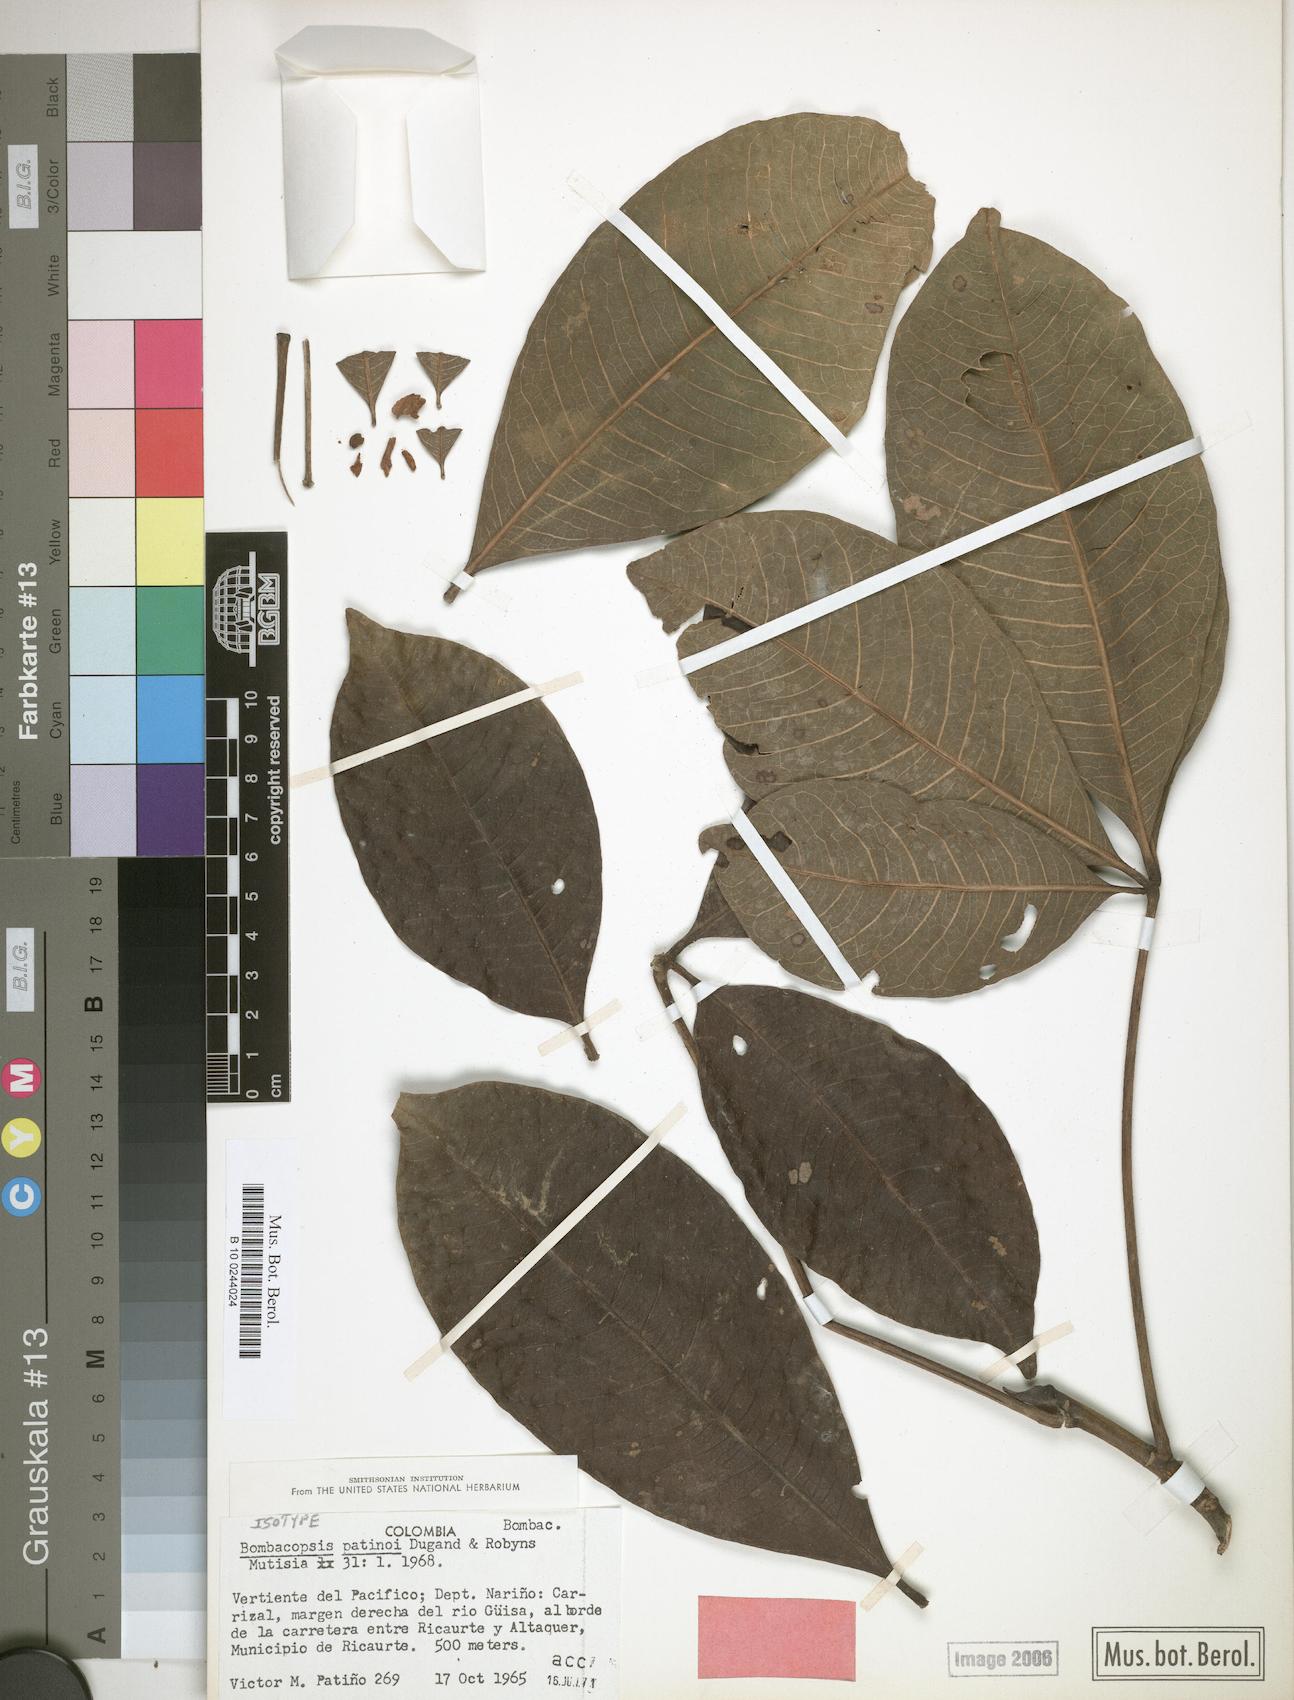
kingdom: Plantae
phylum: Tracheophyta
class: Magnoliopsida
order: Malvales
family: Malvaceae
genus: Pachira
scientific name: Pachira patinoi
